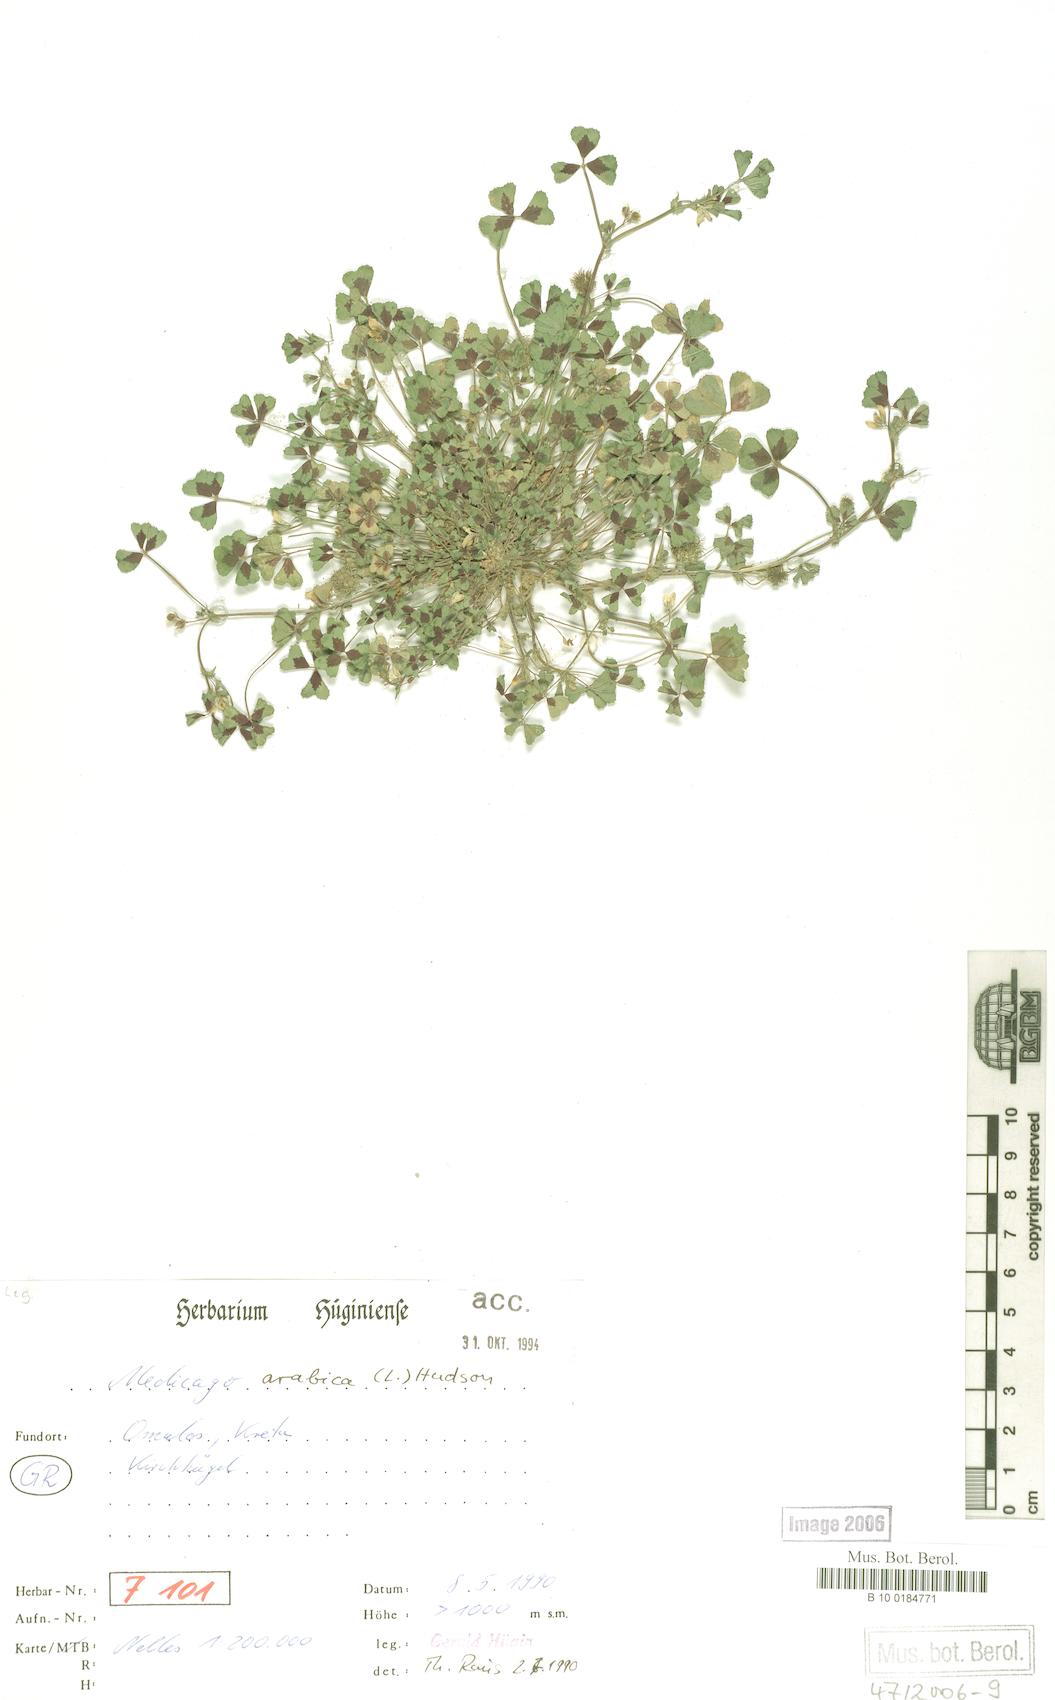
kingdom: Plantae
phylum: Tracheophyta
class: Magnoliopsida
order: Fabales
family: Fabaceae
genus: Medicago
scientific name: Medicago arabica
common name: Spotted medick
